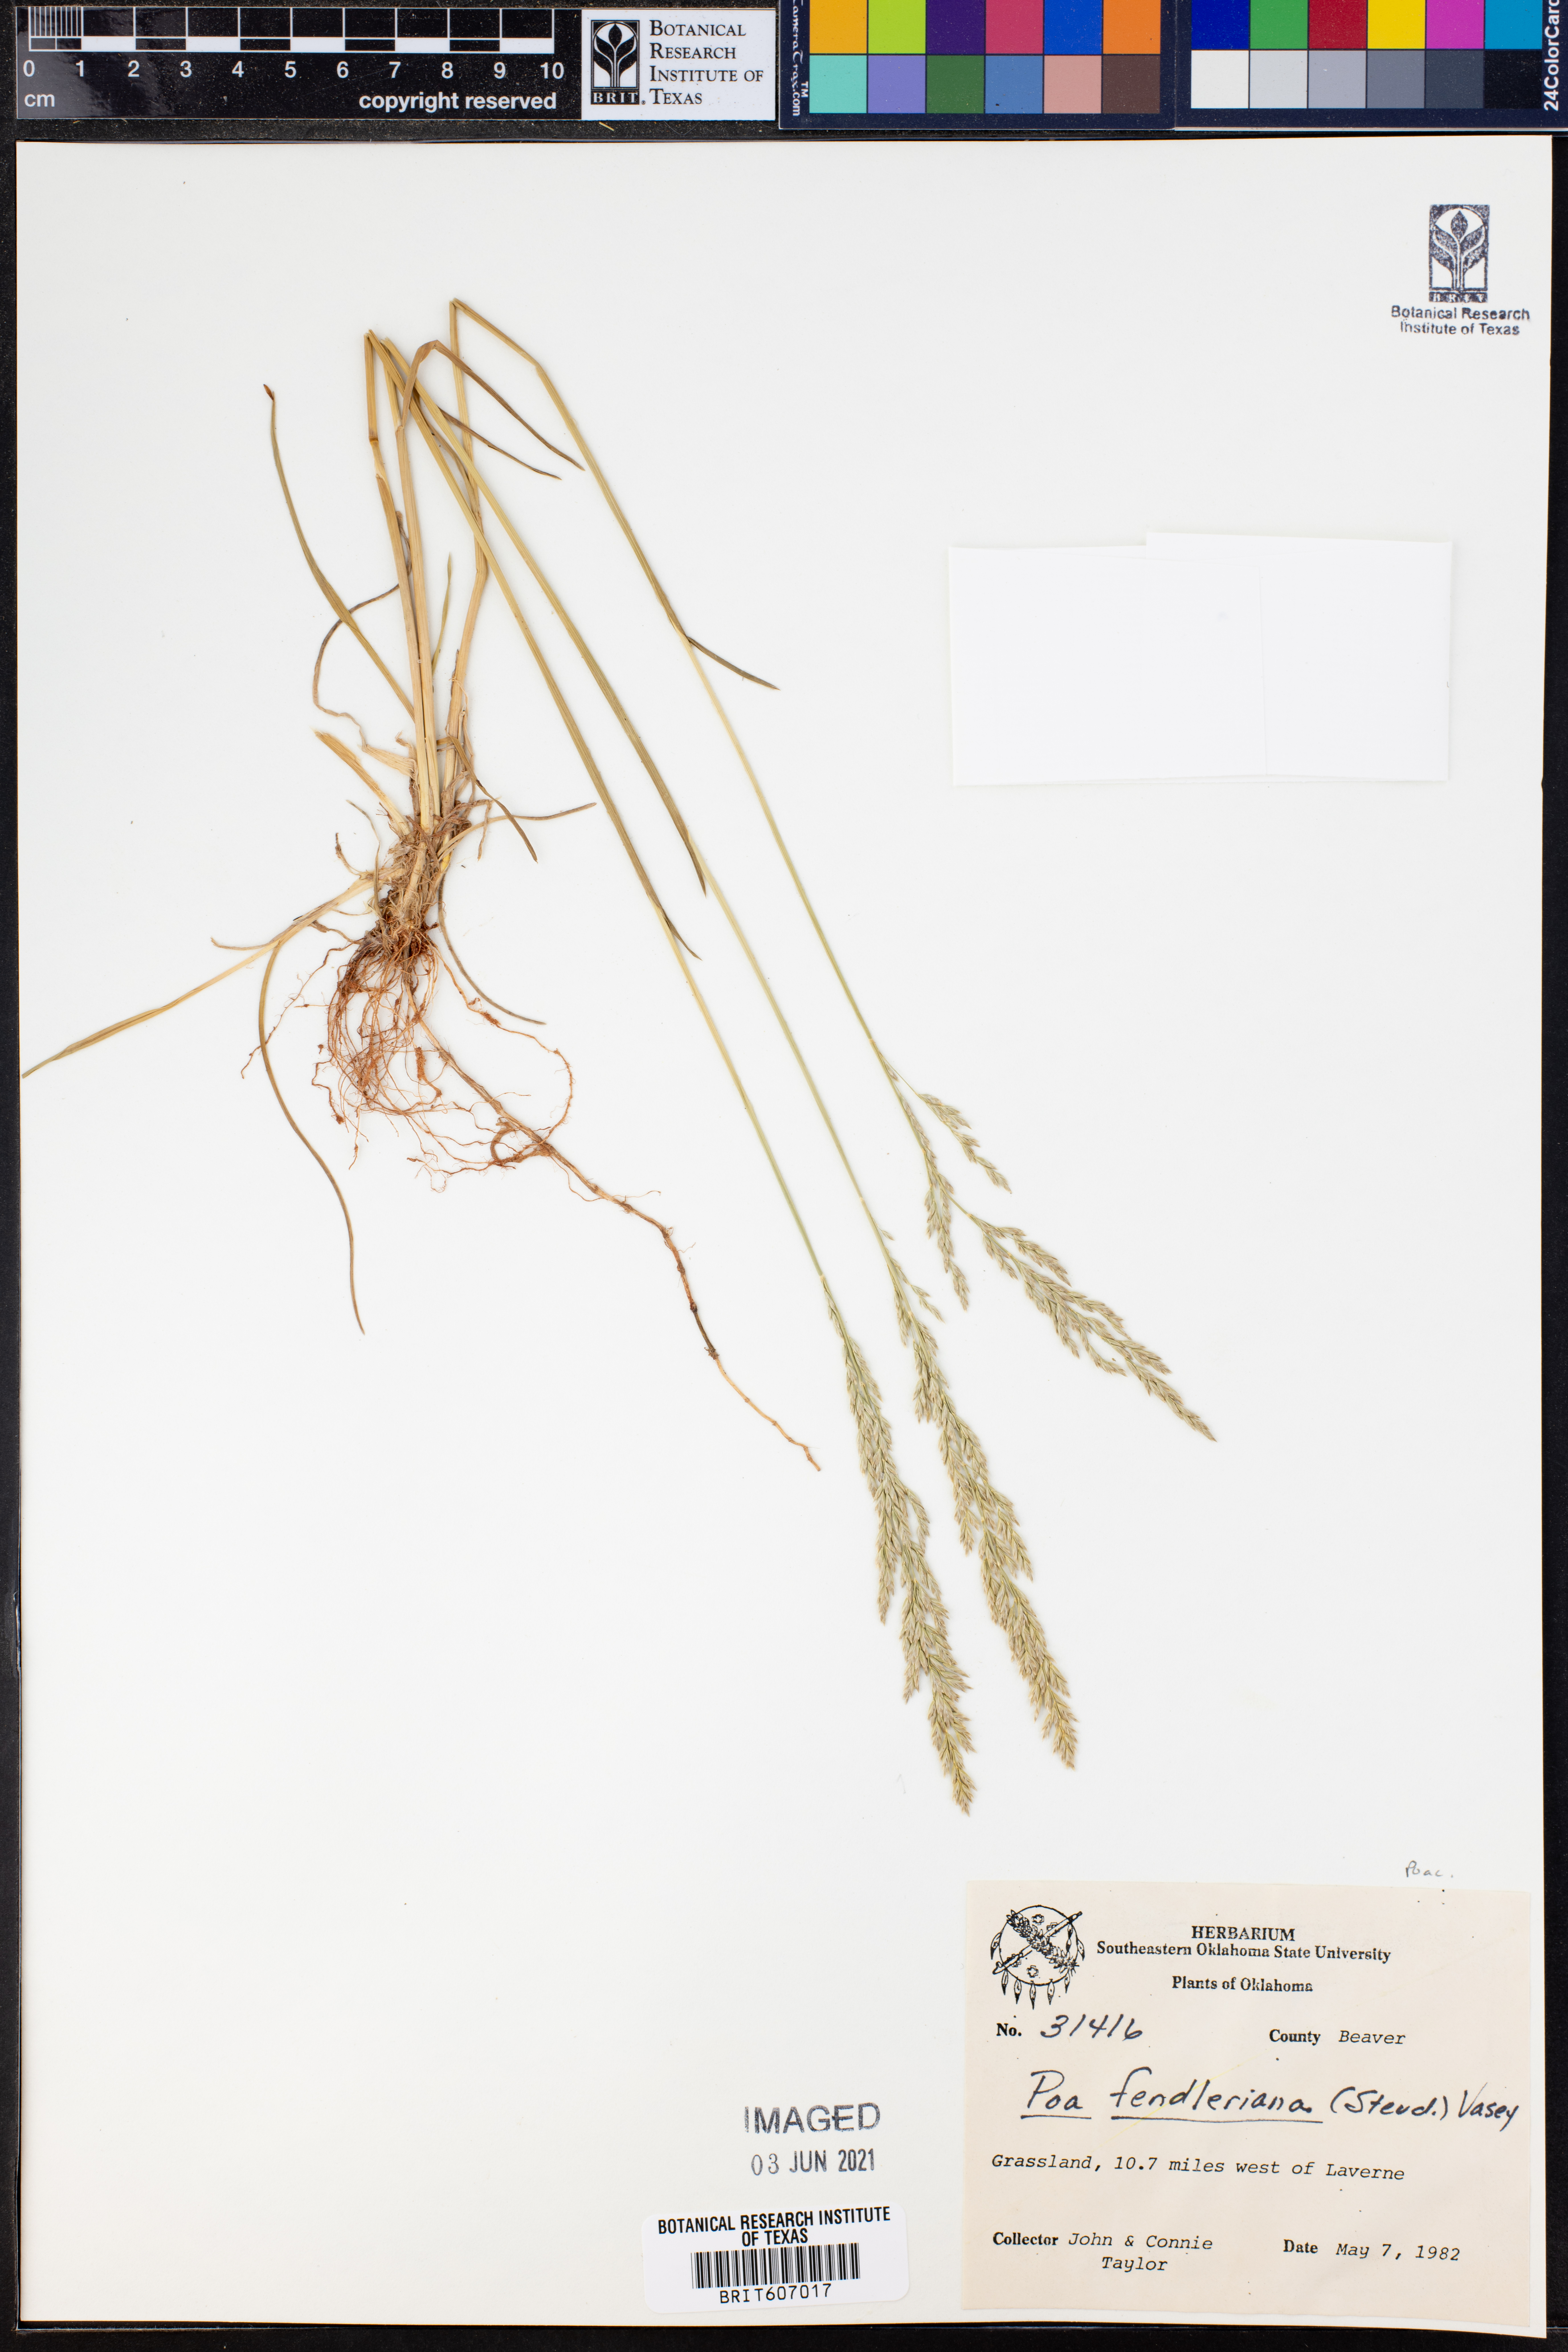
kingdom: Plantae
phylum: Tracheophyta
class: Liliopsida
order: Poales
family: Poaceae
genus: Poa
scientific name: Poa fendleriana
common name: Mutton bluegrass
